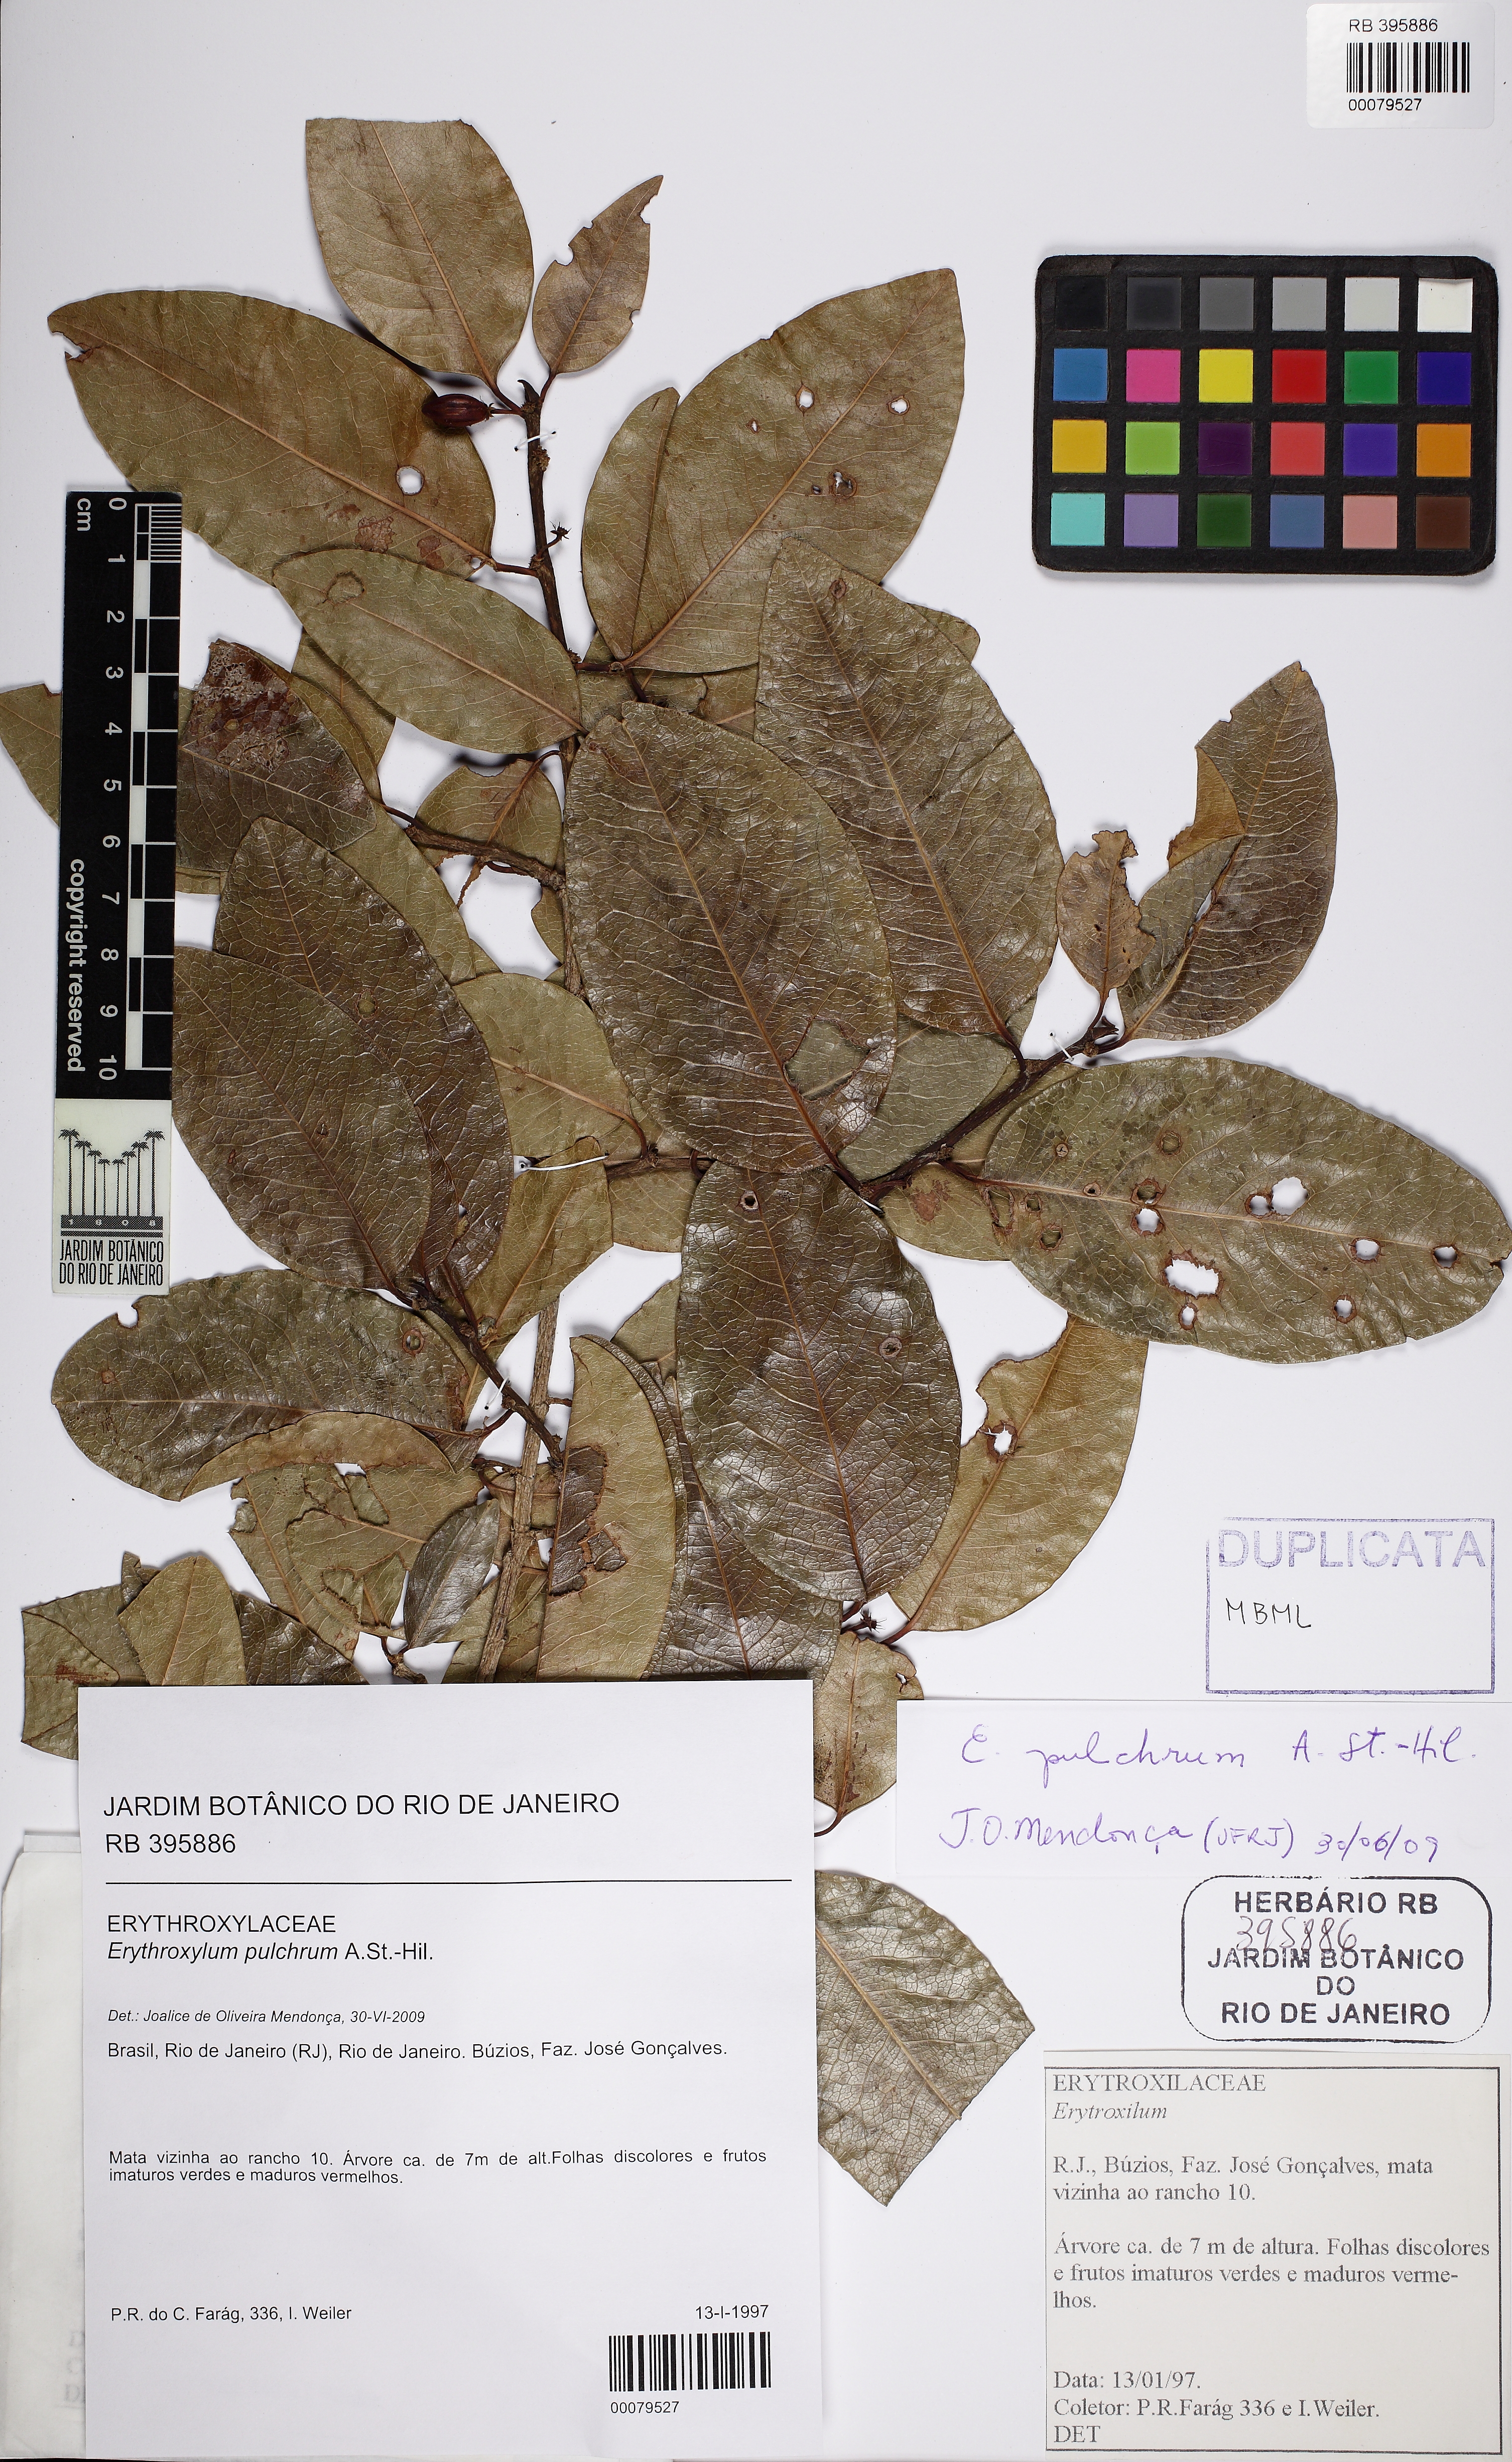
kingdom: Plantae
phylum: Tracheophyta
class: Magnoliopsida
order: Malpighiales
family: Erythroxylaceae
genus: Erythroxylum
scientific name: Erythroxylum pulchrum
